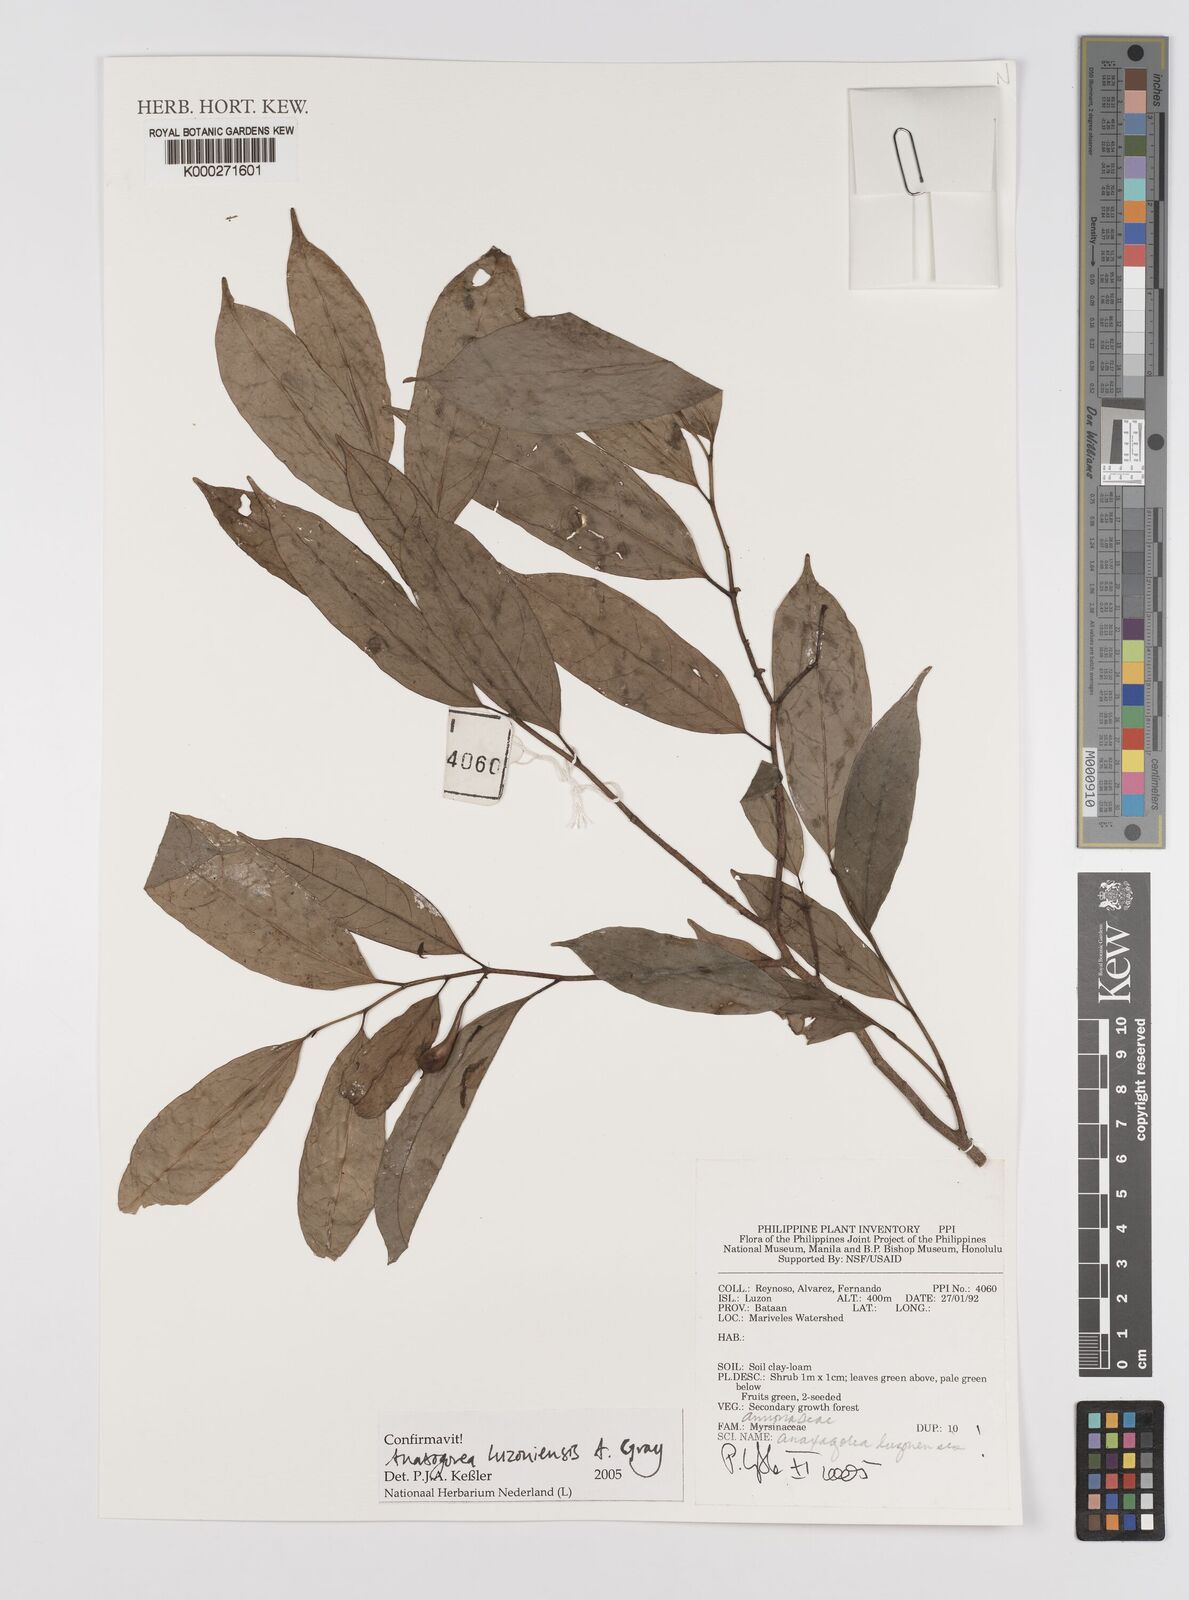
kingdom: Plantae
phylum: Tracheophyta
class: Magnoliopsida
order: Magnoliales
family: Annonaceae
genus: Anaxagorea
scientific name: Anaxagorea luzonensis
